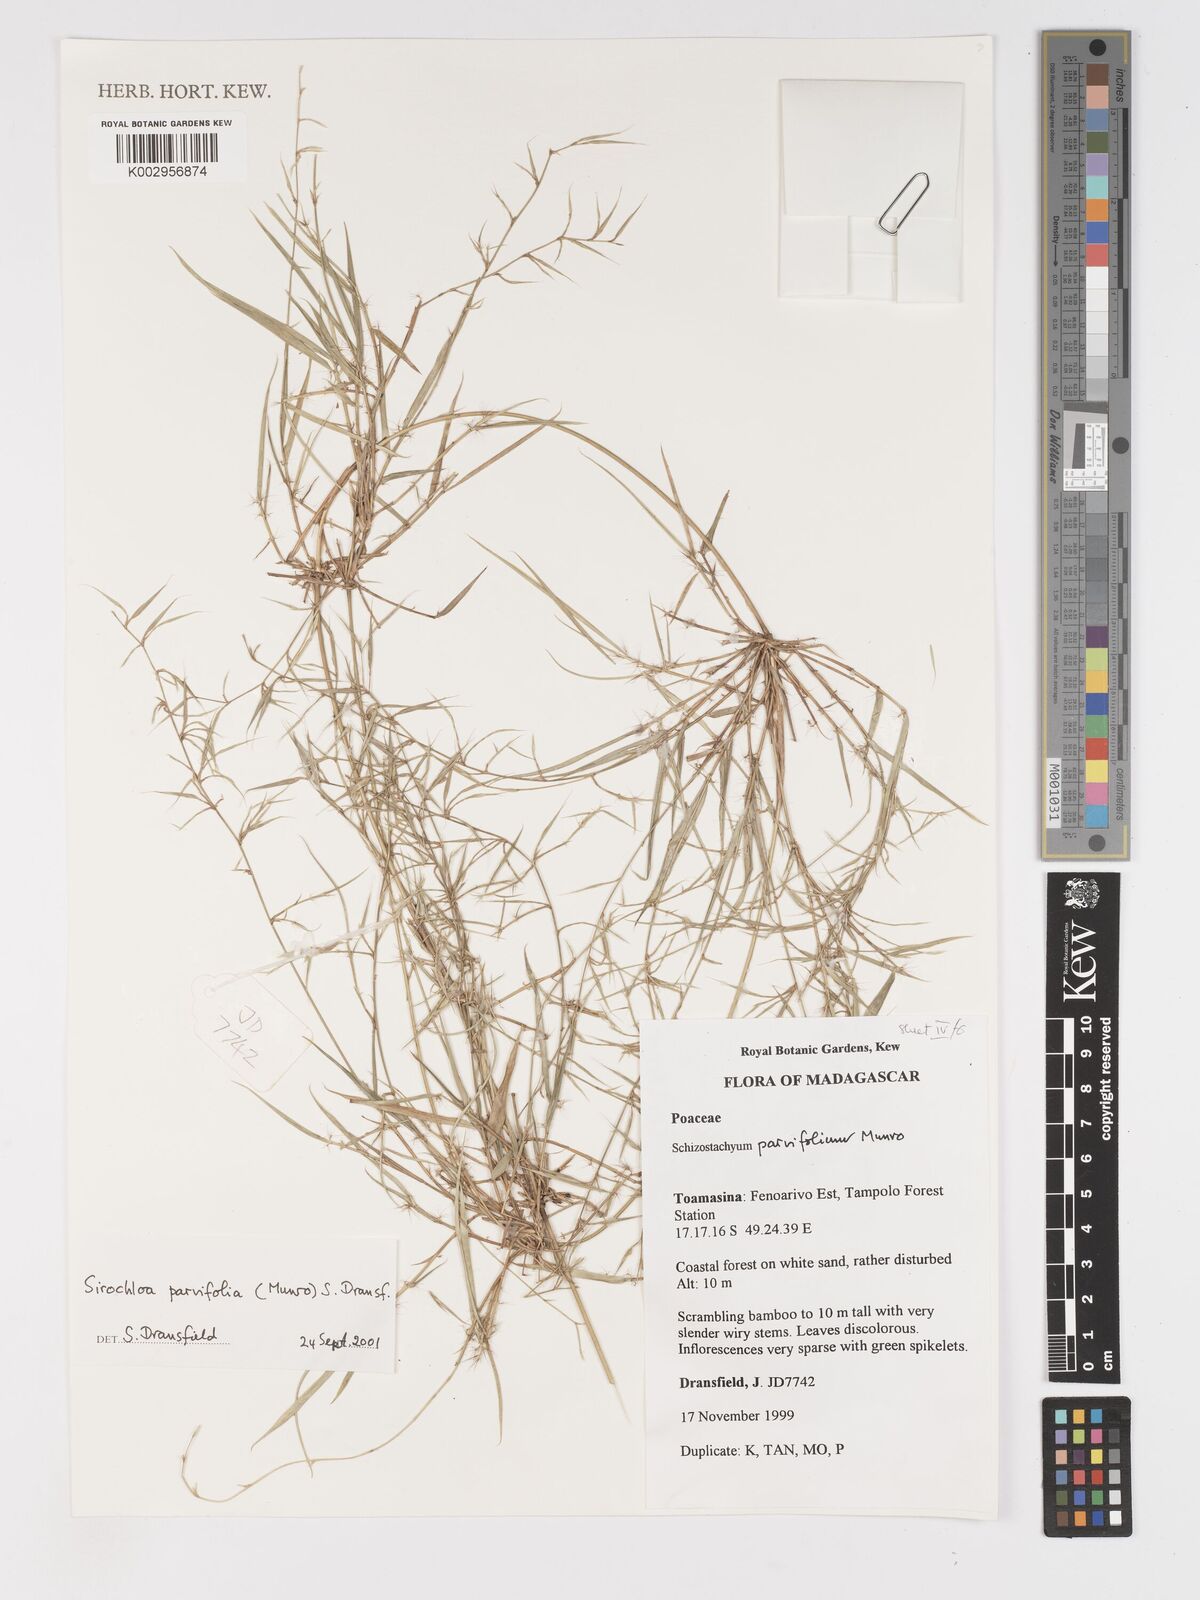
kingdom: Plantae
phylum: Tracheophyta
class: Liliopsida
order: Poales
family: Poaceae
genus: Sirochloa
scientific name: Sirochloa parvifolia
